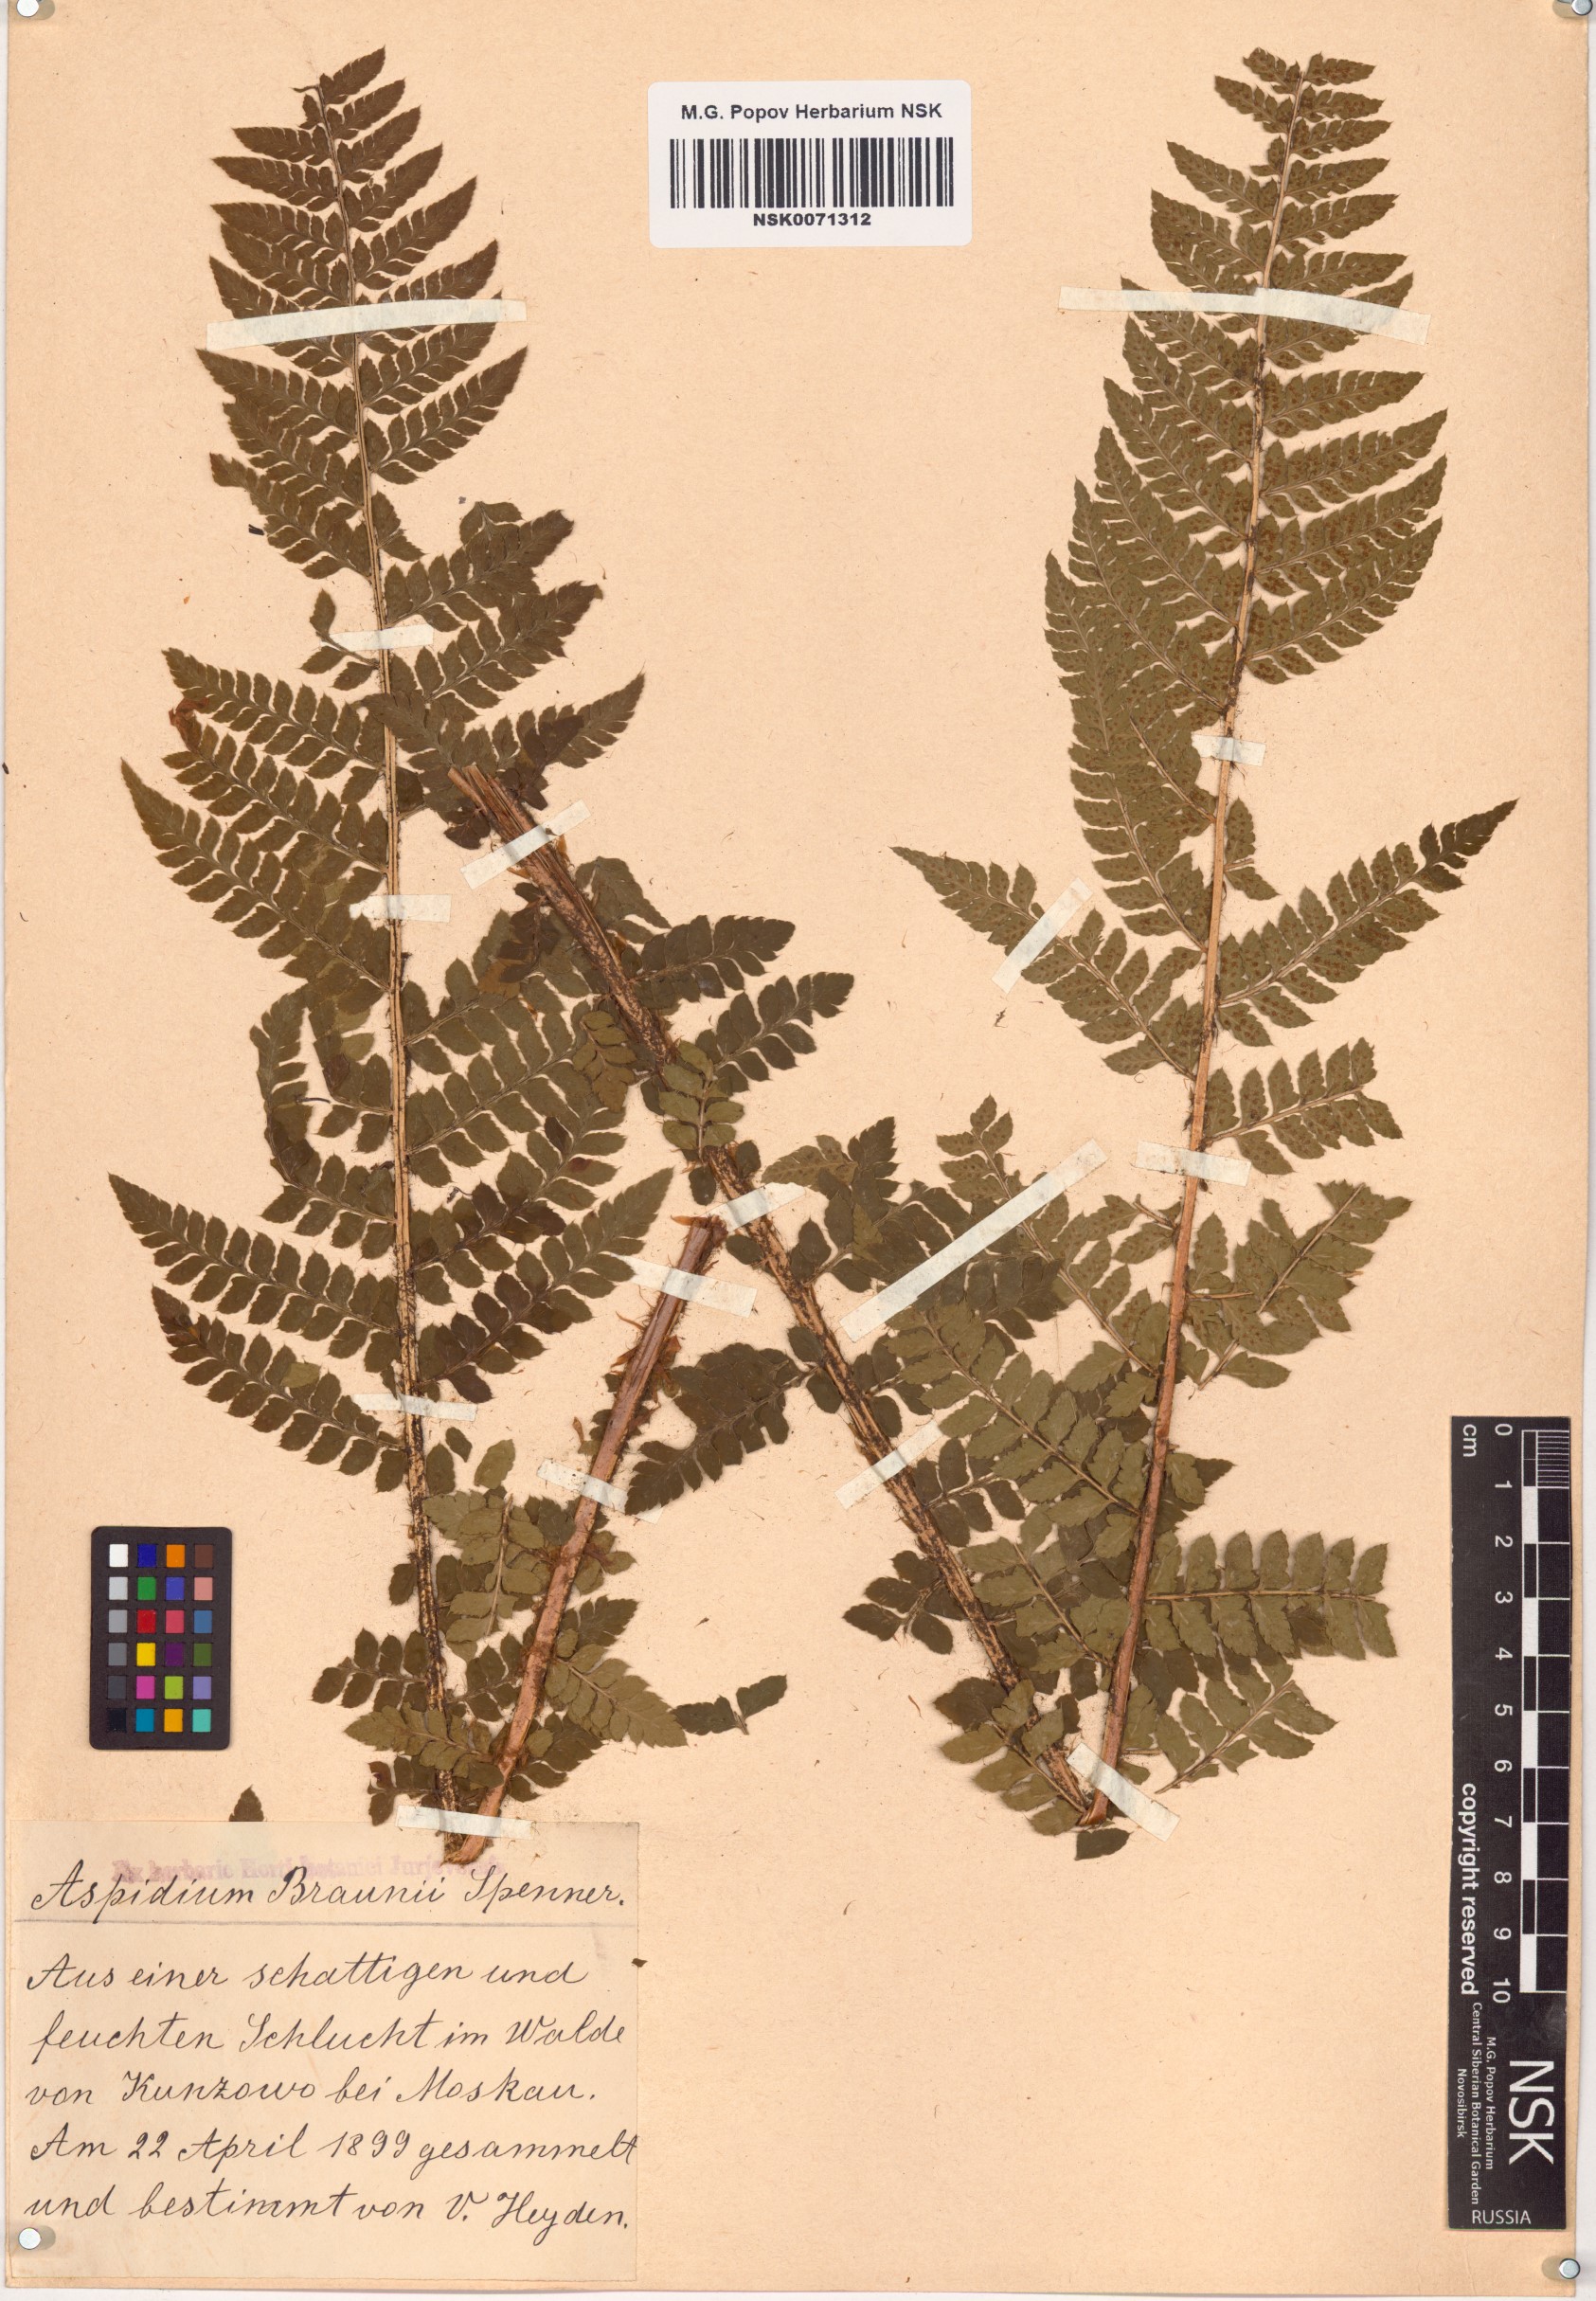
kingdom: Plantae
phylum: Tracheophyta
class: Polypodiopsida
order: Polypodiales
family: Dryopteridaceae
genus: Polystichum
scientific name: Polystichum braunii
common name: Braun's holly fern
